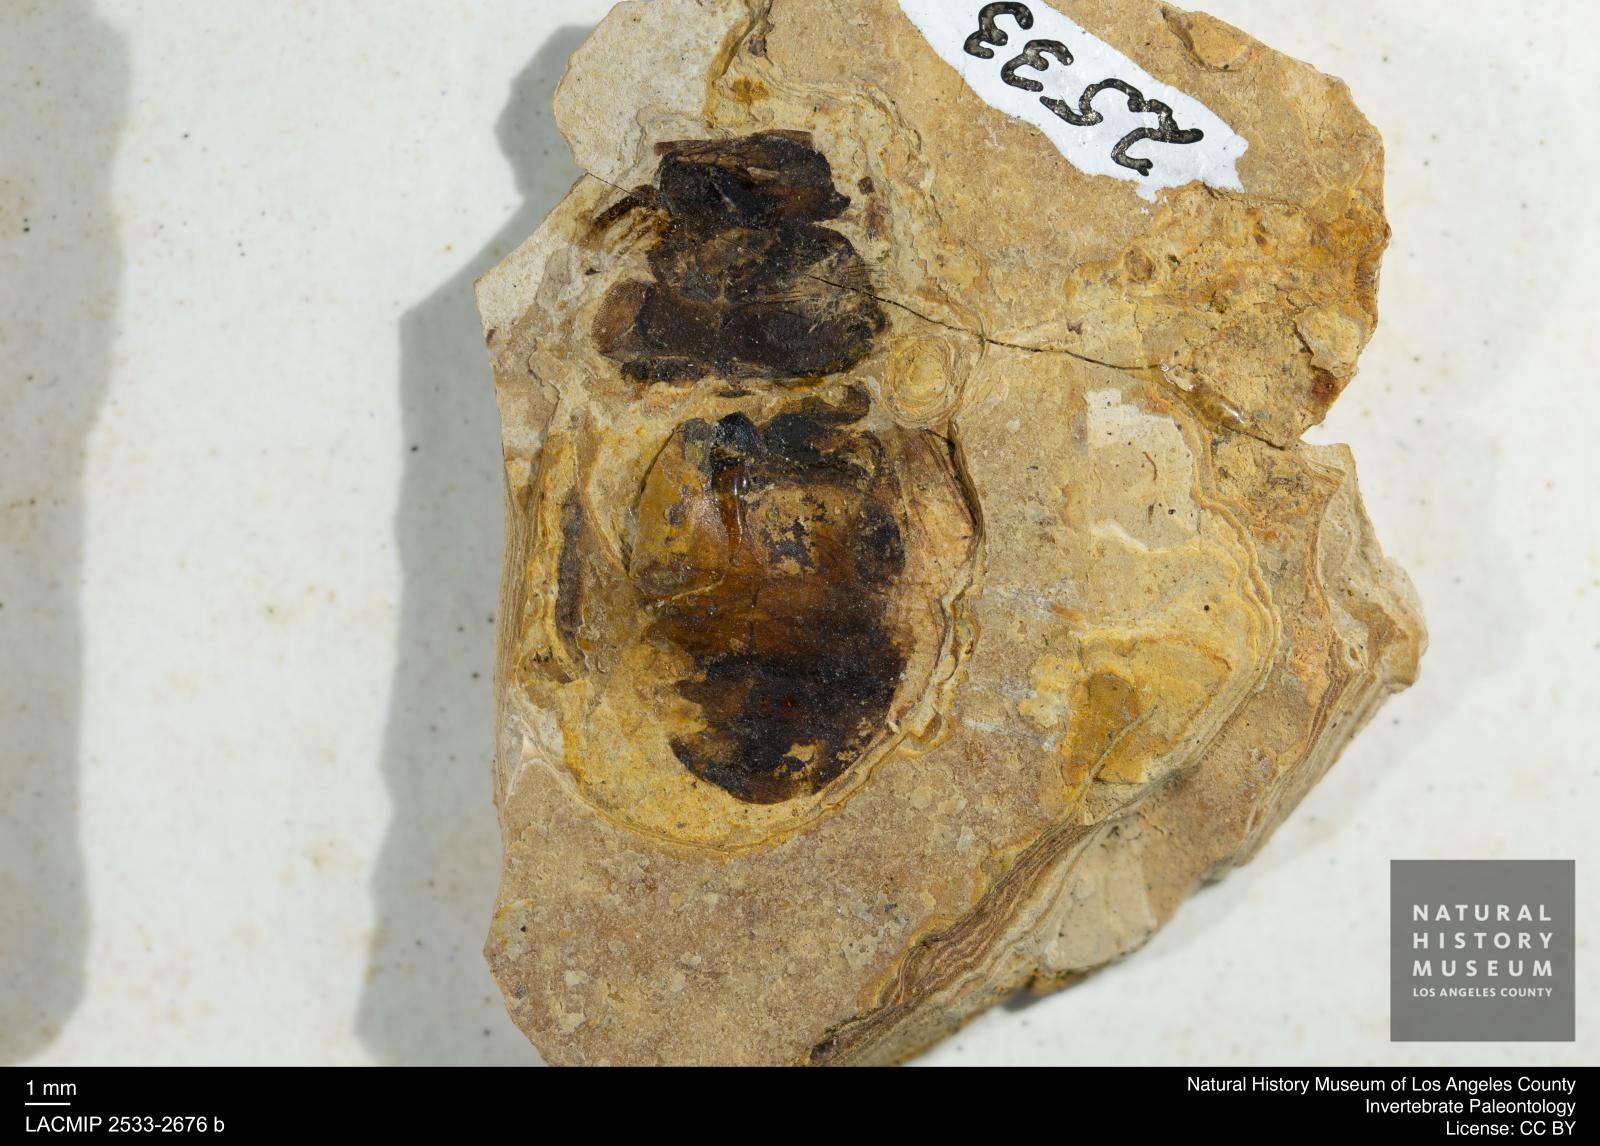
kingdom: Animalia
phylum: Arthropoda
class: Insecta
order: Hymenoptera
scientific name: Hymenoptera
